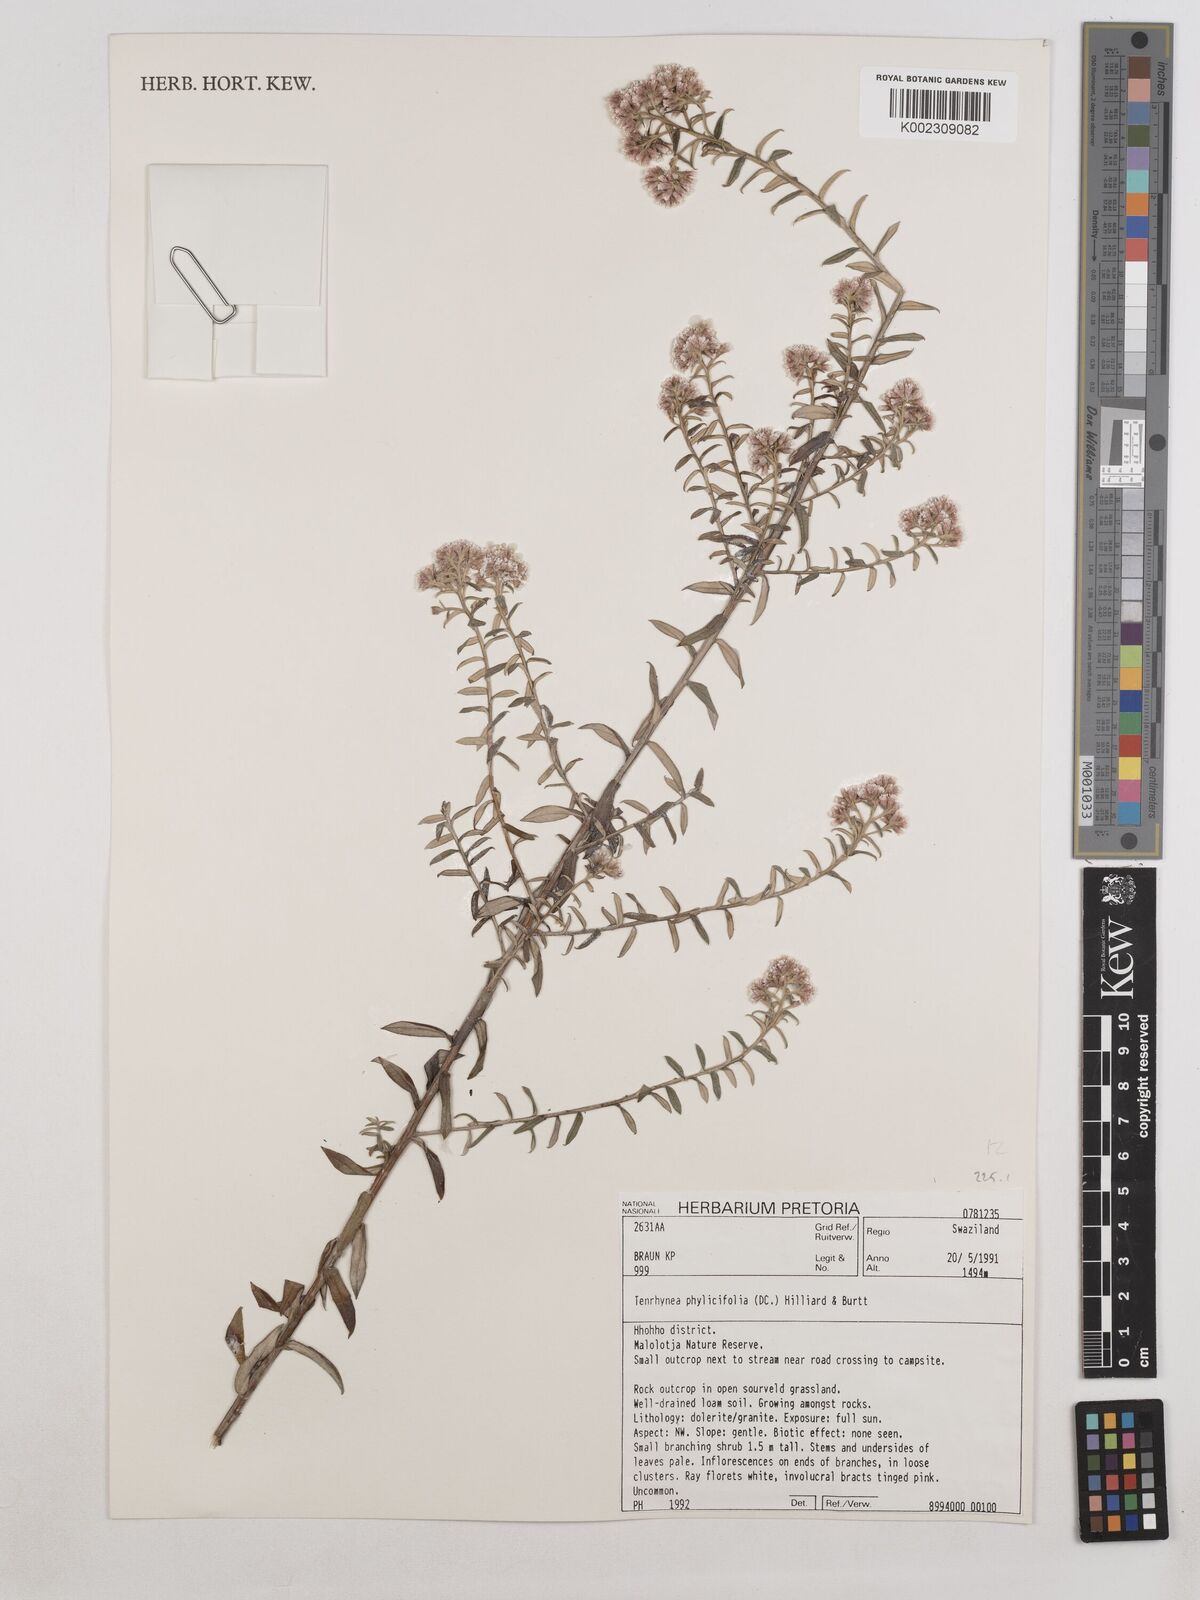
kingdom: Plantae
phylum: Tracheophyta
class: Magnoliopsida
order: Asterales
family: Asteraceae
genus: Tenrhynea
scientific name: Tenrhynea phylicifolia
